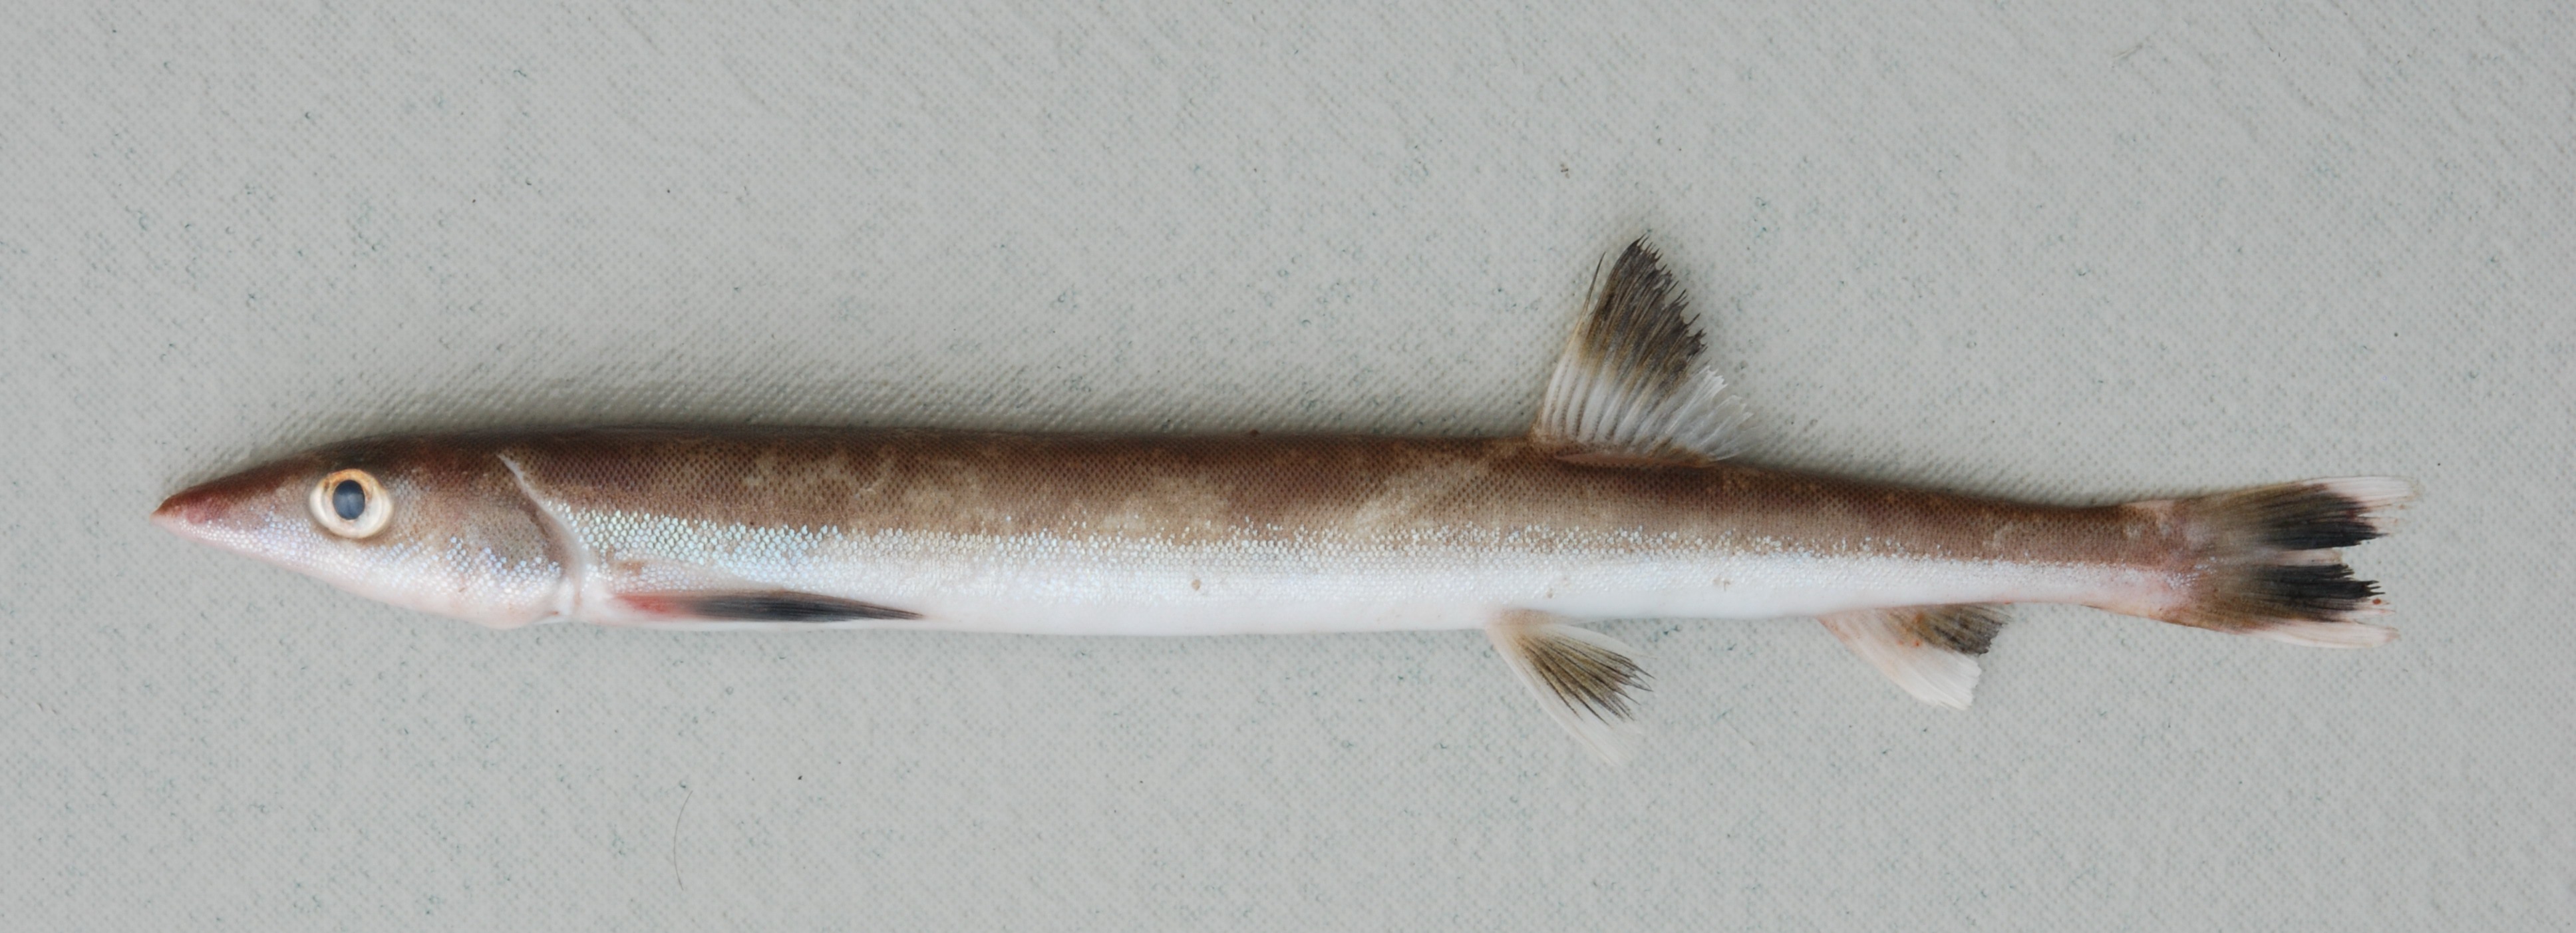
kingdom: Animalia
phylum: Chordata
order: Gonorynchiformes
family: Gonorynchidae
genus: Gonorynchus
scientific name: Gonorynchus gonorynchus
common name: Beaked salmon
